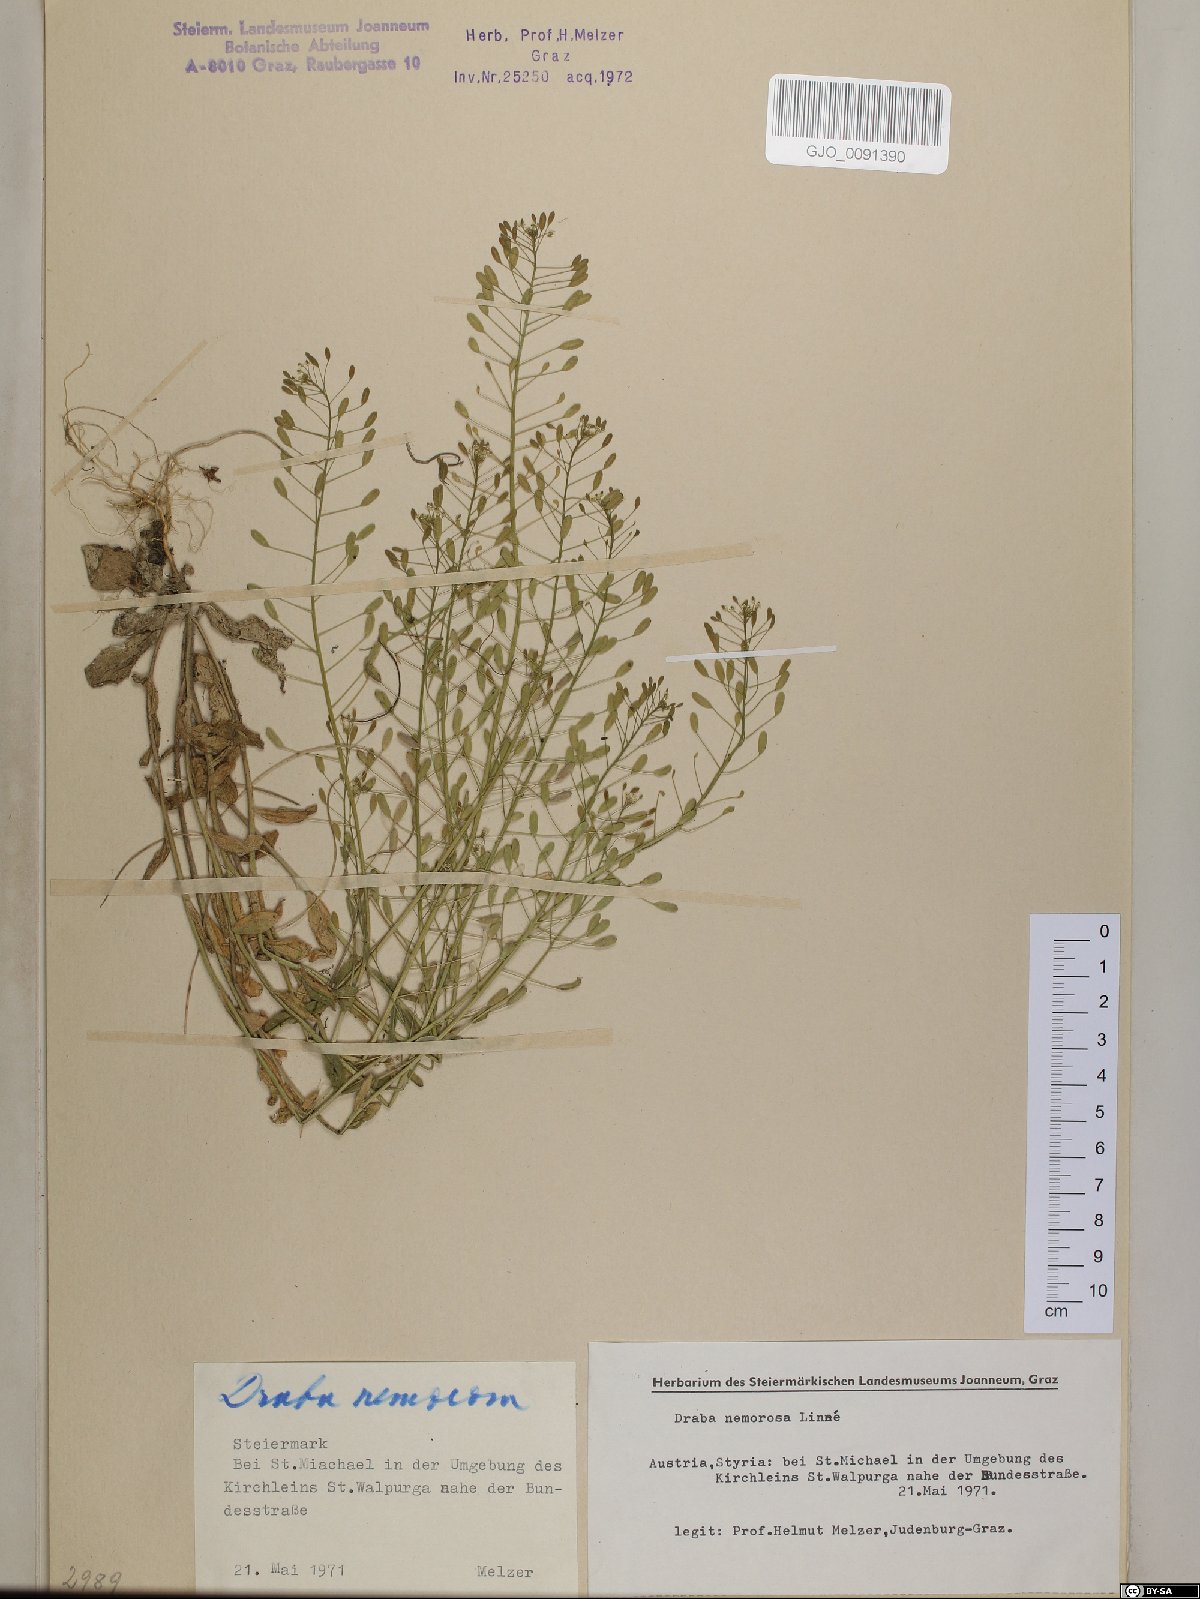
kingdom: Plantae
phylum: Tracheophyta
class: Magnoliopsida
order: Brassicales
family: Brassicaceae
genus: Draba
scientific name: Draba nemorosa
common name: Wood whitlow-grass
